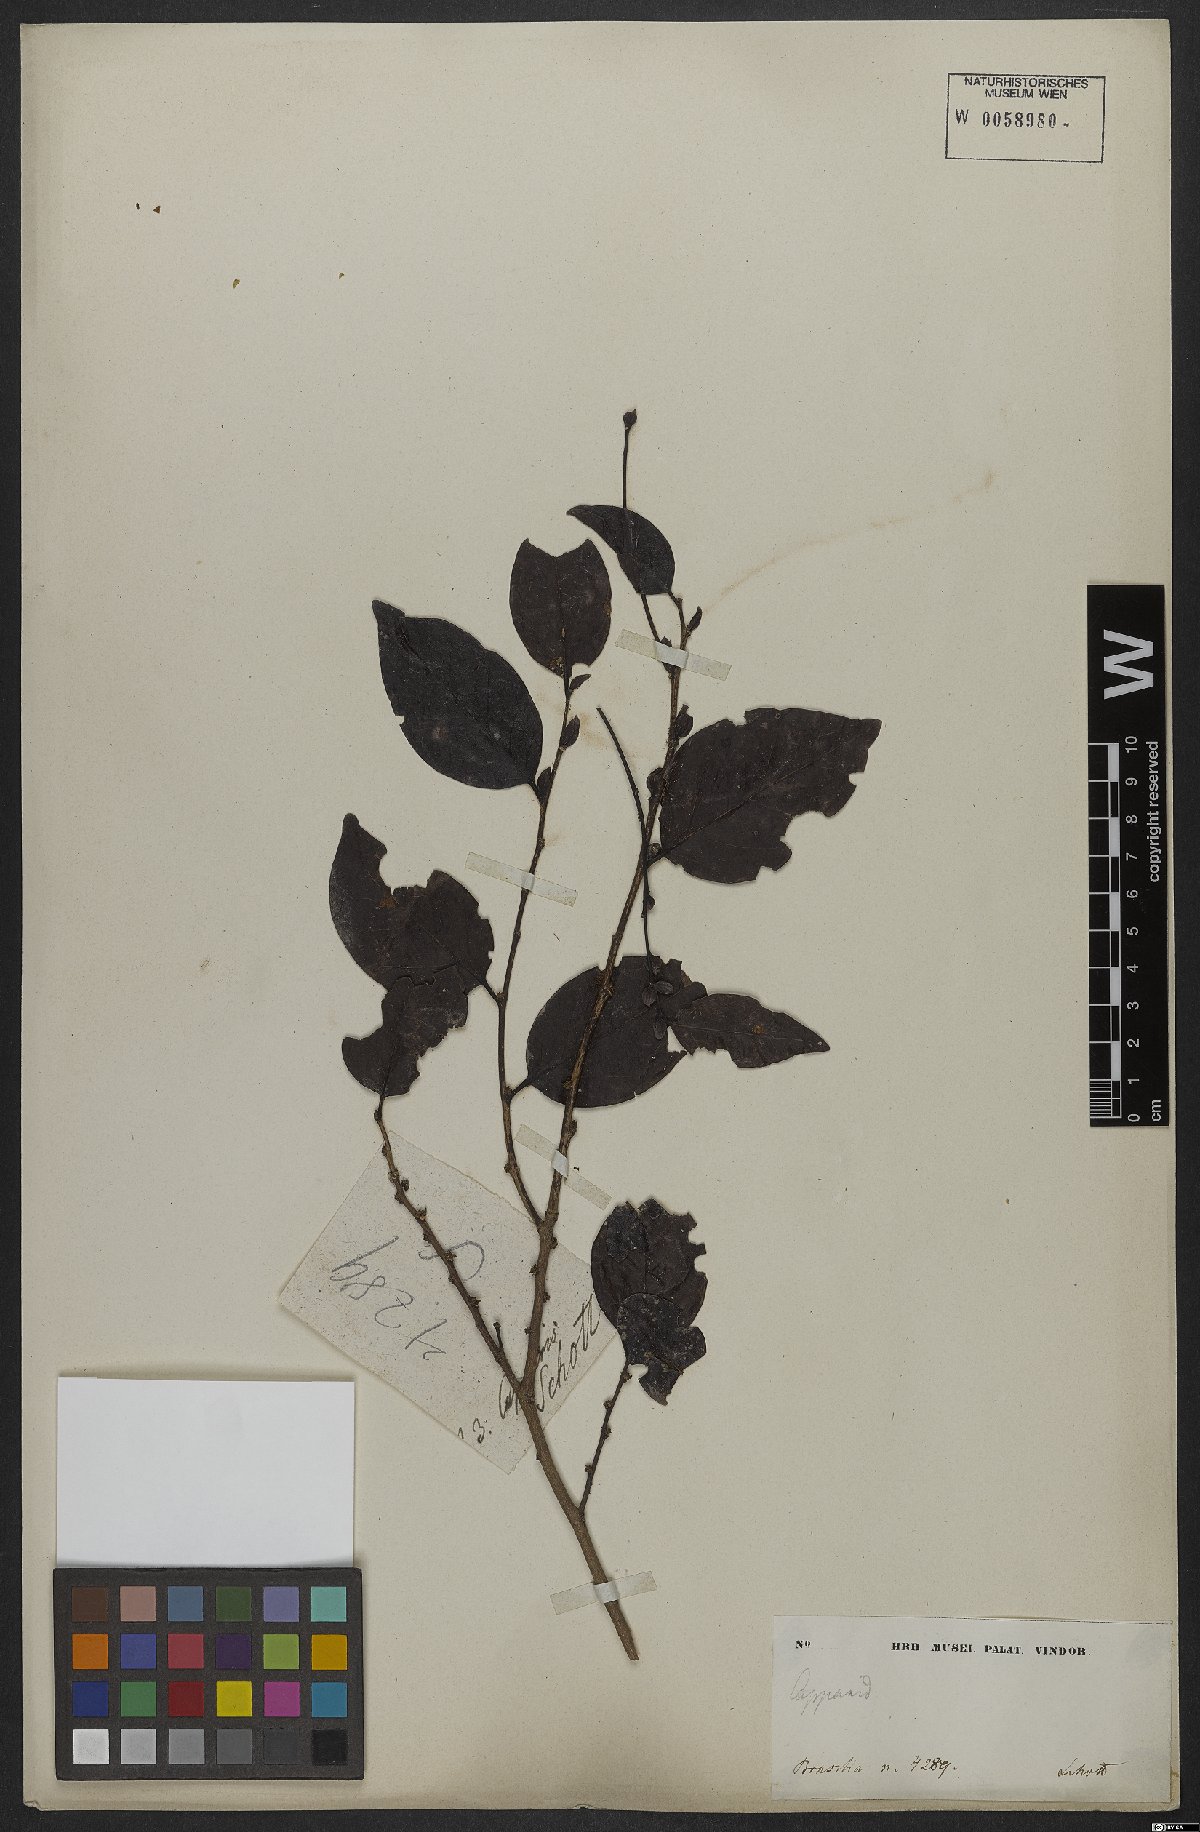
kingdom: Plantae
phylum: Tracheophyta
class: Magnoliopsida
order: Brassicales
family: Capparaceae
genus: Capparis
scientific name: Capparis
